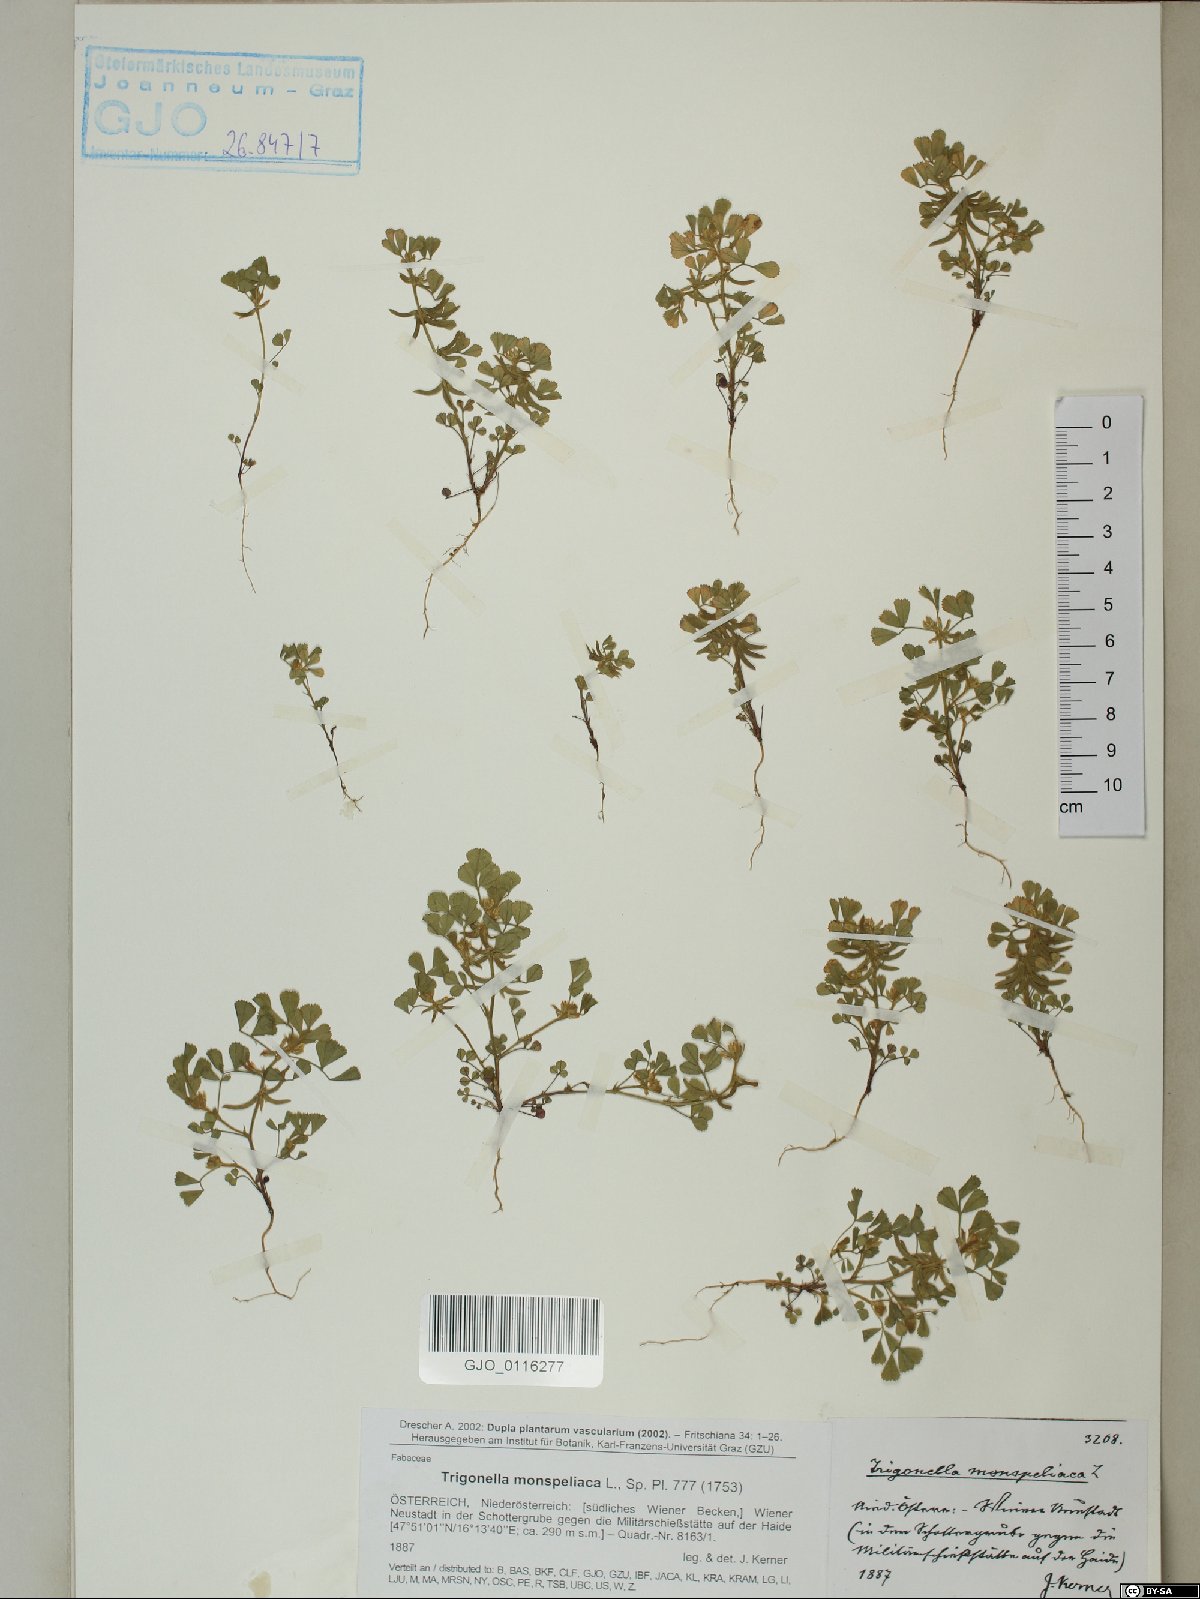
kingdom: Plantae
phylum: Tracheophyta
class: Magnoliopsida
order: Fabales
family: Fabaceae
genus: Medicago
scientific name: Medicago monspeliaca
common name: Hairy medick
